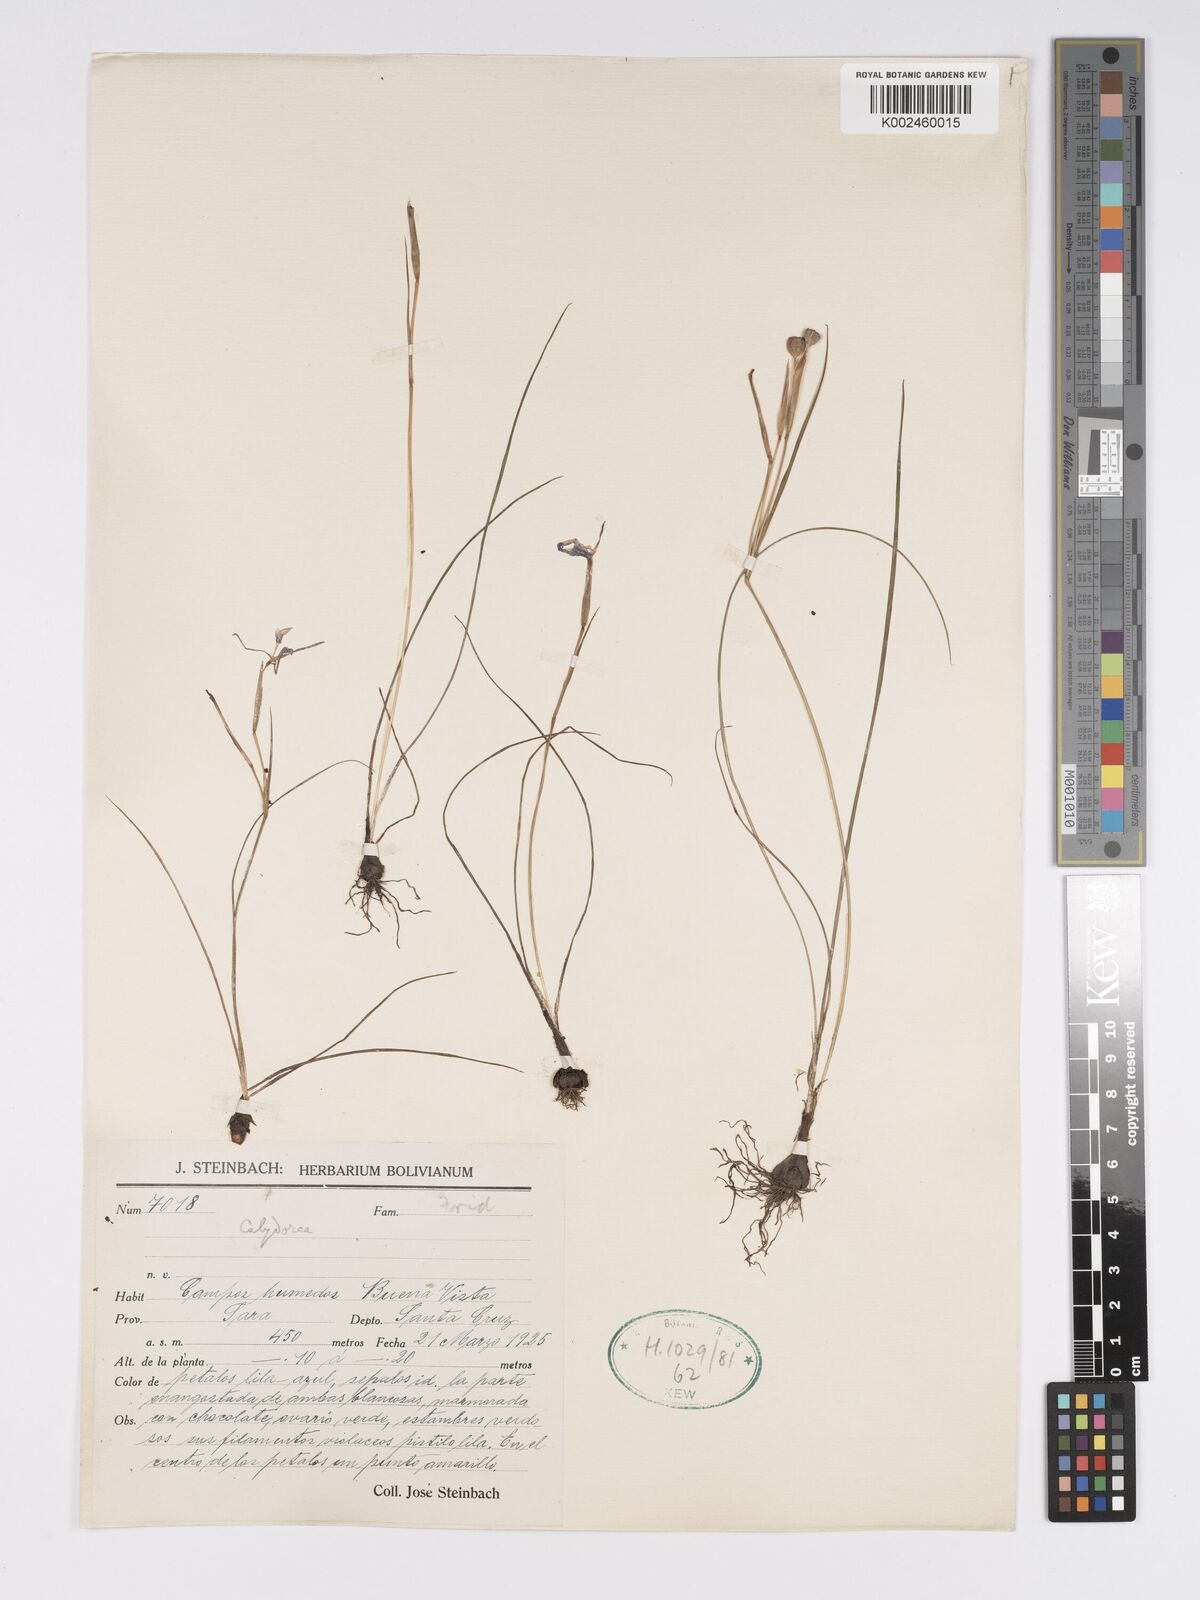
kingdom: Plantae
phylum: Tracheophyta
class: Liliopsida
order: Asparagales
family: Iridaceae
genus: Calydorea
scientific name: Calydorea
